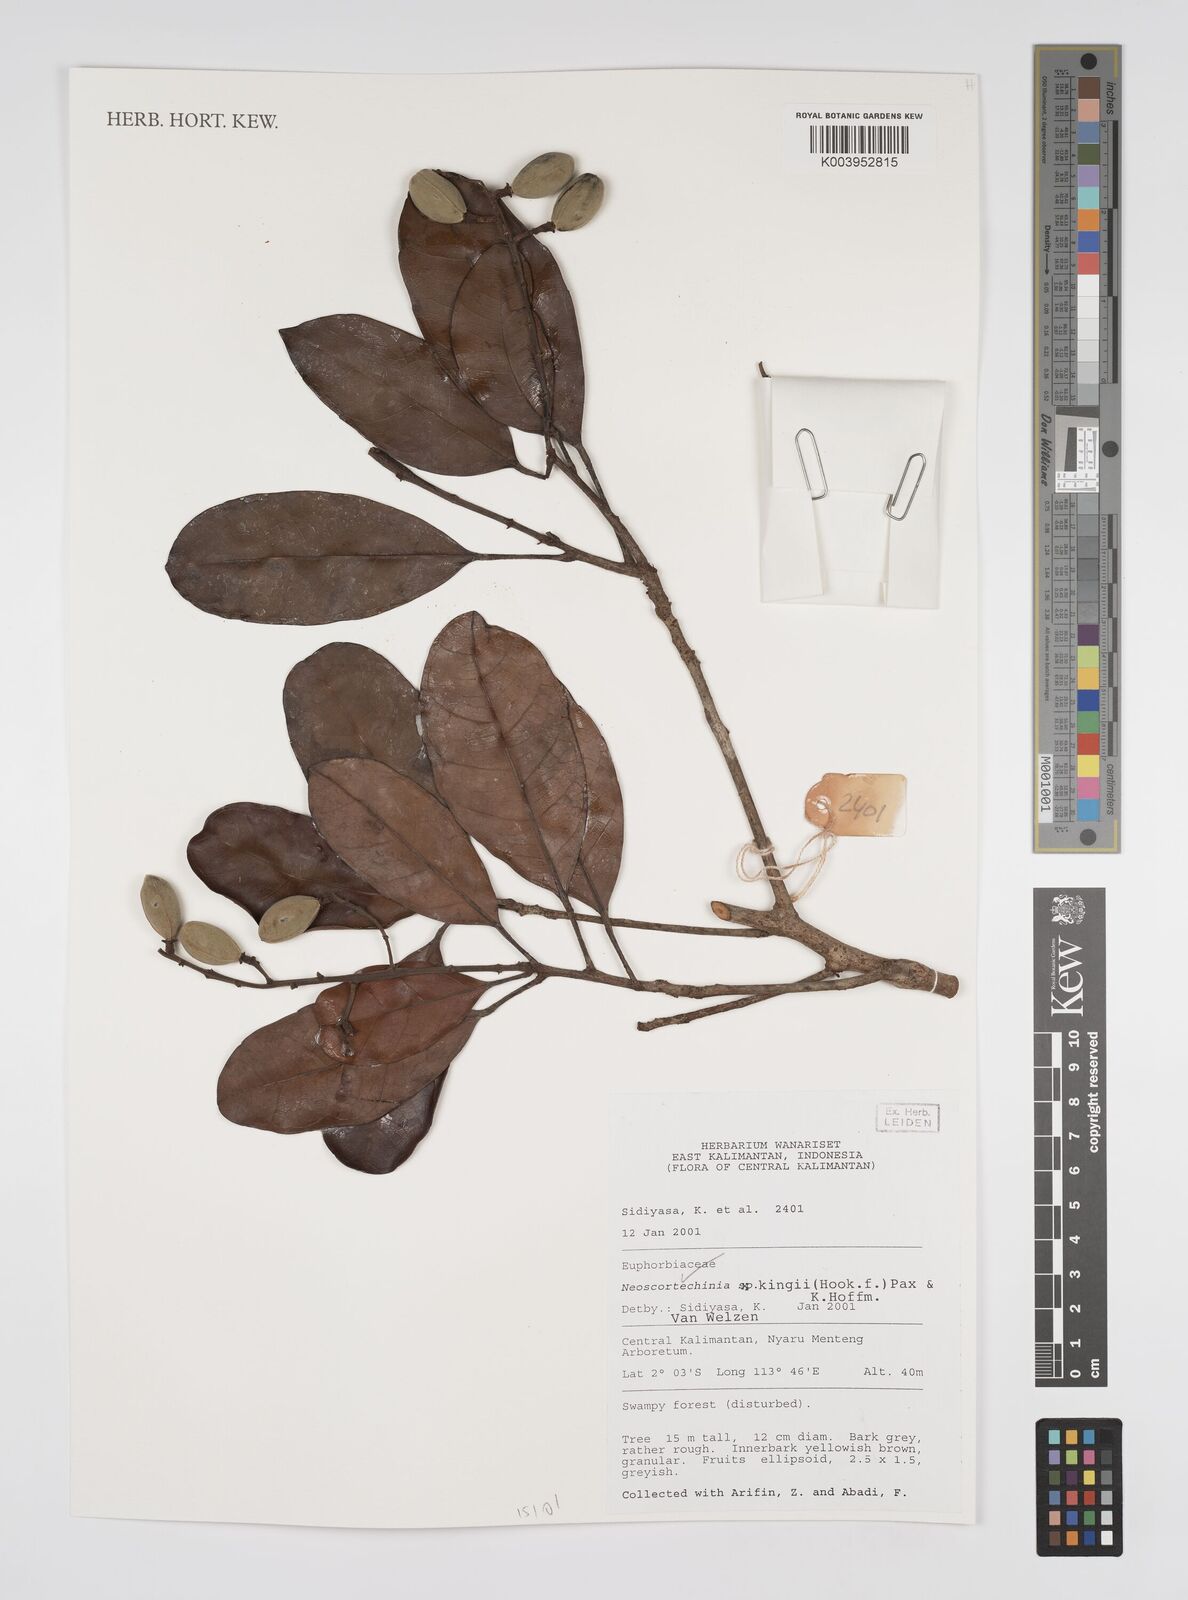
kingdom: Plantae
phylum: Tracheophyta
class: Magnoliopsida
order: Malpighiales
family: Euphorbiaceae
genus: Neoscortechinia
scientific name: Neoscortechinia kingii
